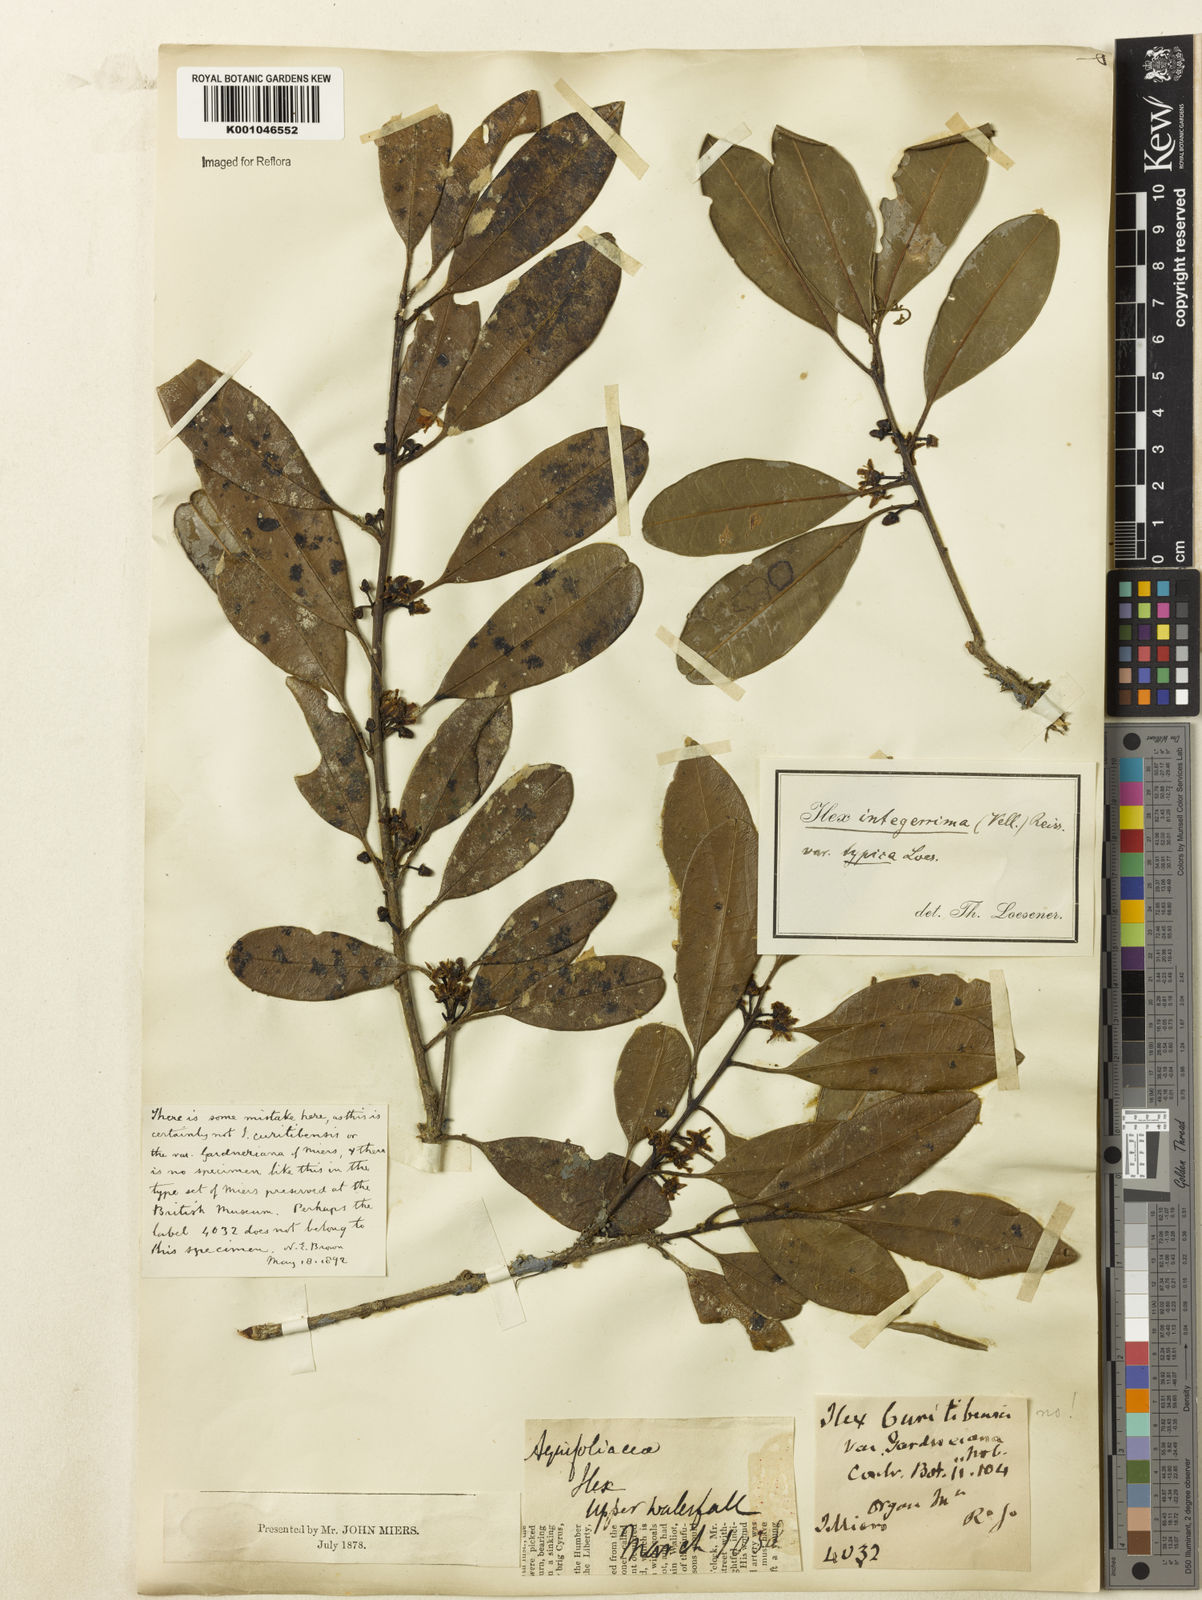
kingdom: Plantae
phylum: Tracheophyta
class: Magnoliopsida
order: Aquifoliales
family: Aquifoliaceae
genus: Ilex
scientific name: Ilex integerrima
